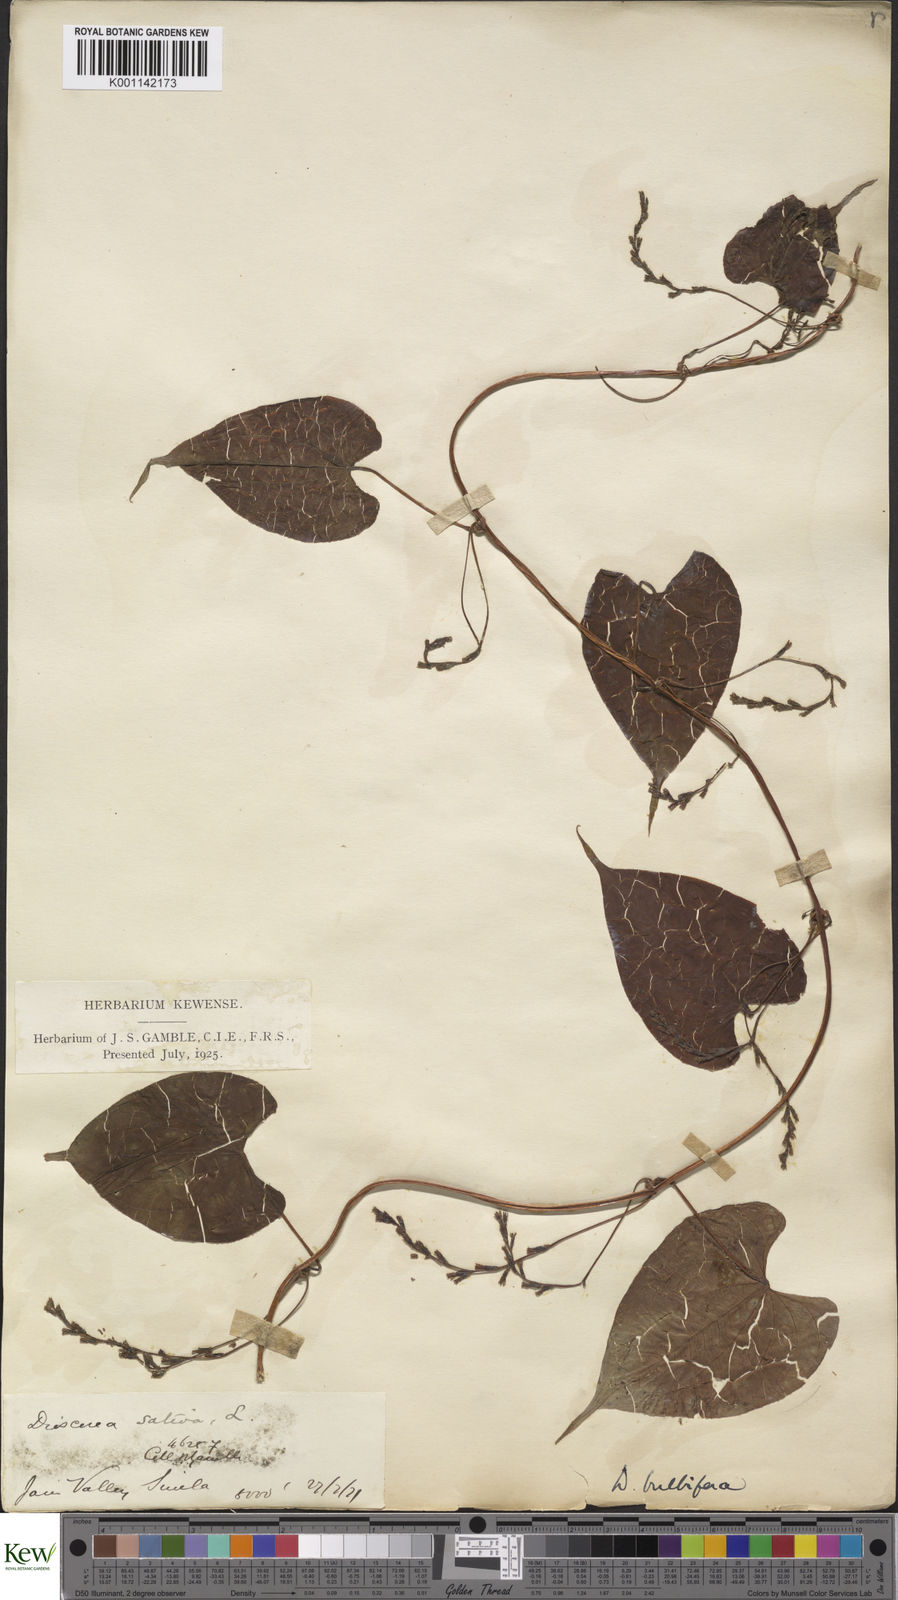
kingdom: Plantae
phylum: Tracheophyta
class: Liliopsida
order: Dioscoreales
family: Dioscoreaceae
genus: Dioscorea
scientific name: Dioscorea bulbifera
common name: Air yam
